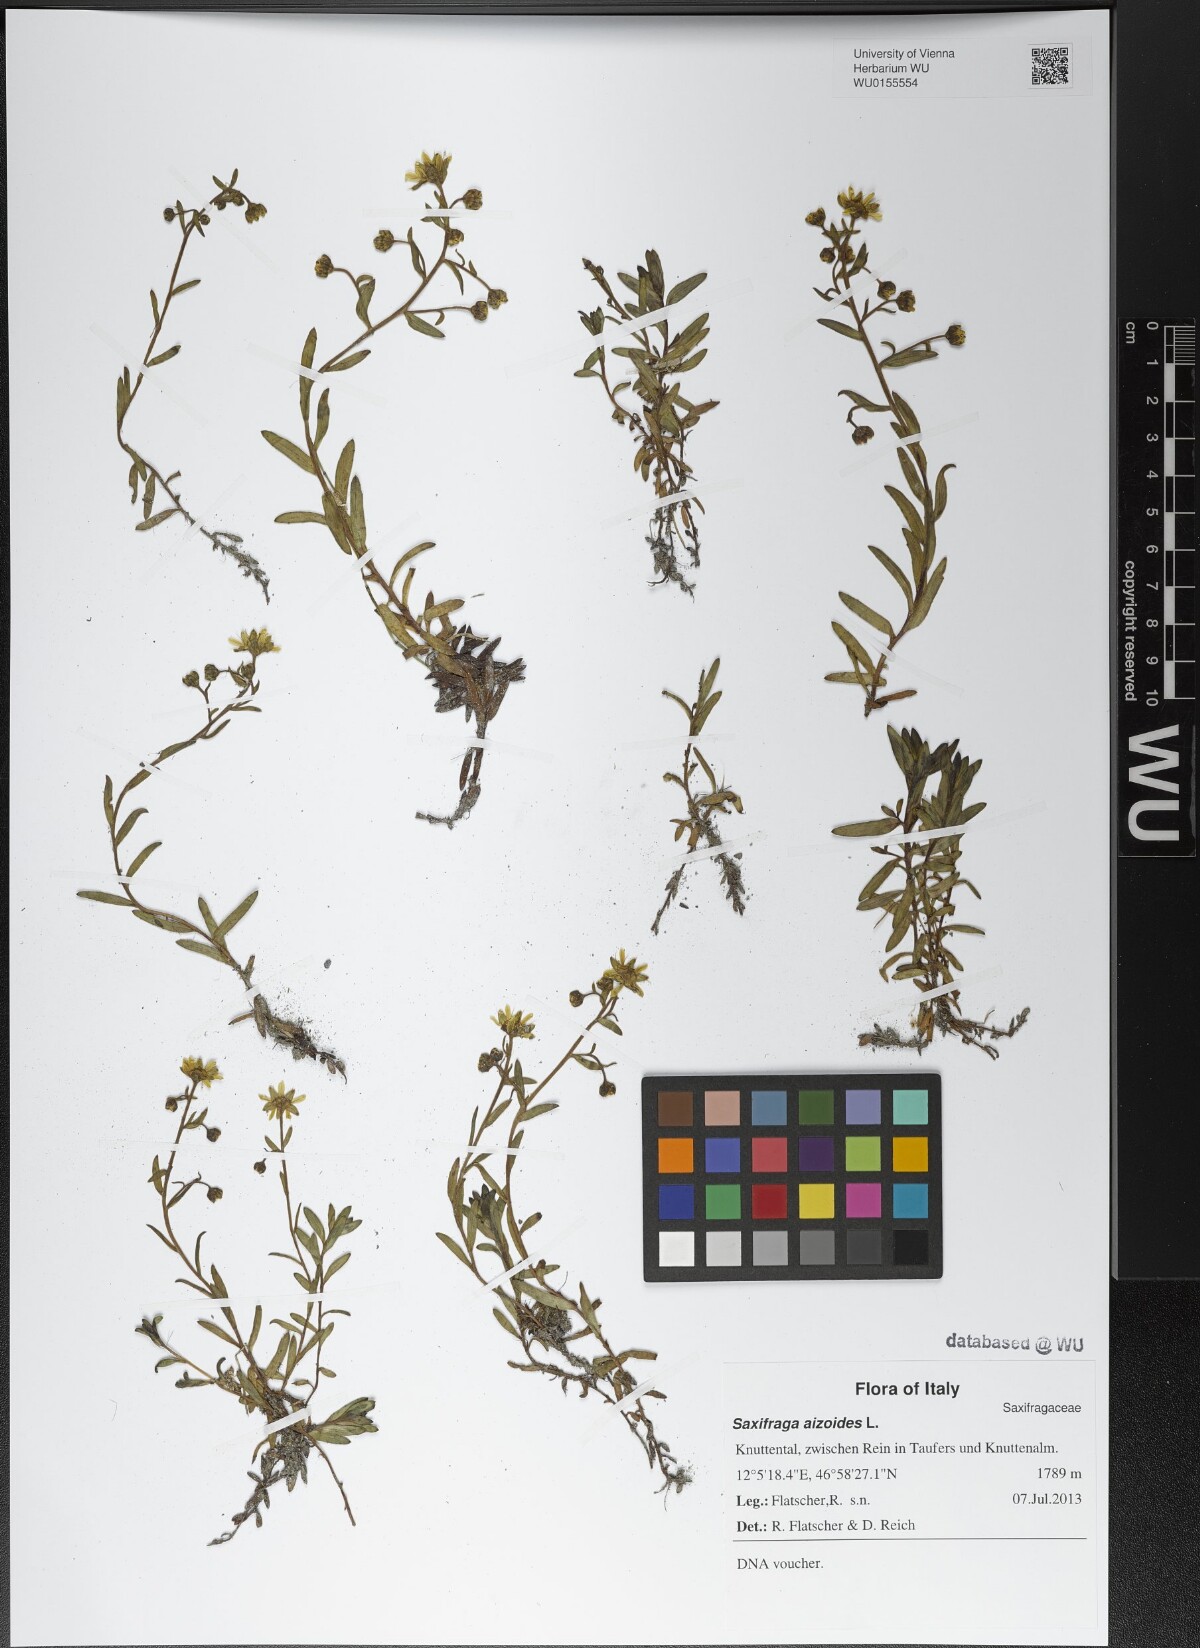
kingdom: Plantae
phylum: Tracheophyta
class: Magnoliopsida
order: Saxifragales
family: Saxifragaceae
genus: Saxifraga
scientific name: Saxifraga aizoides
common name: Yellow mountain saxifrage
